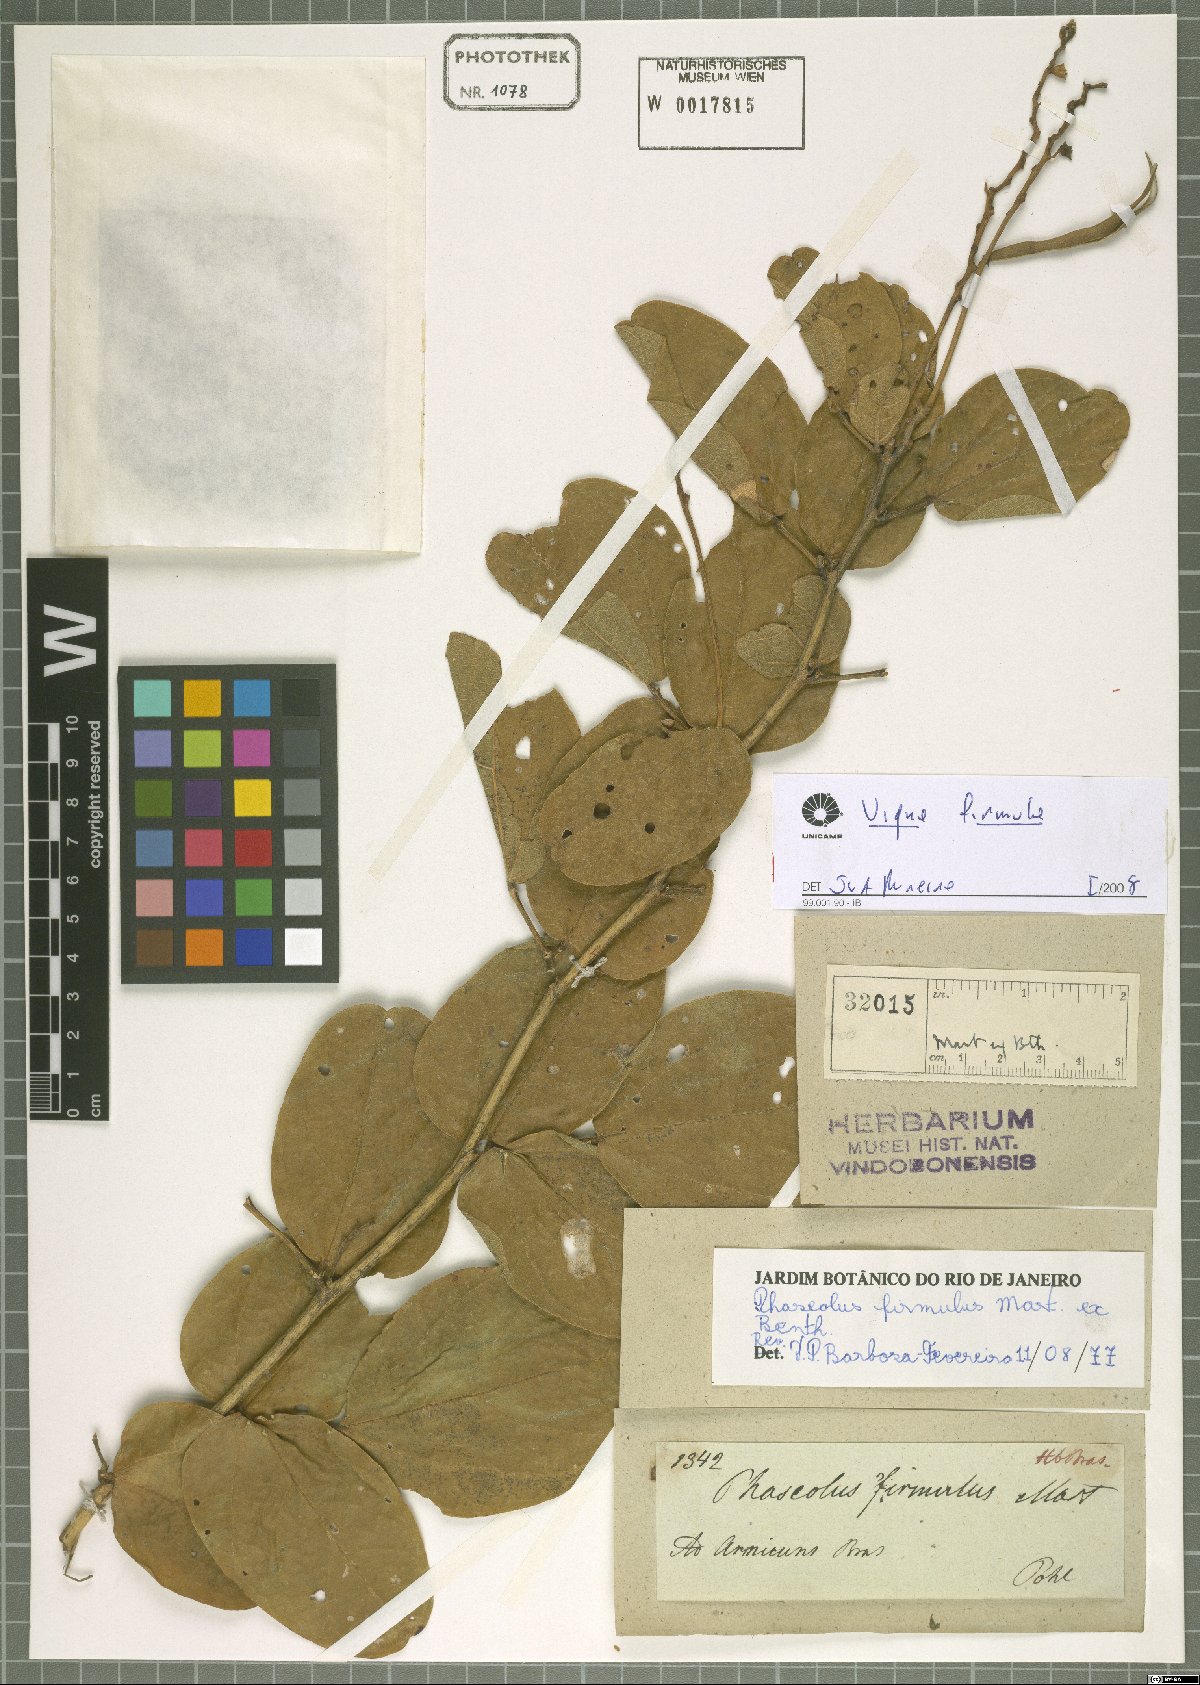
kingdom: Plantae
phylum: Tracheophyta
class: Magnoliopsida
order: Fabales
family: Fabaceae
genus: Ancistrotropis
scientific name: Ancistrotropis firmula
